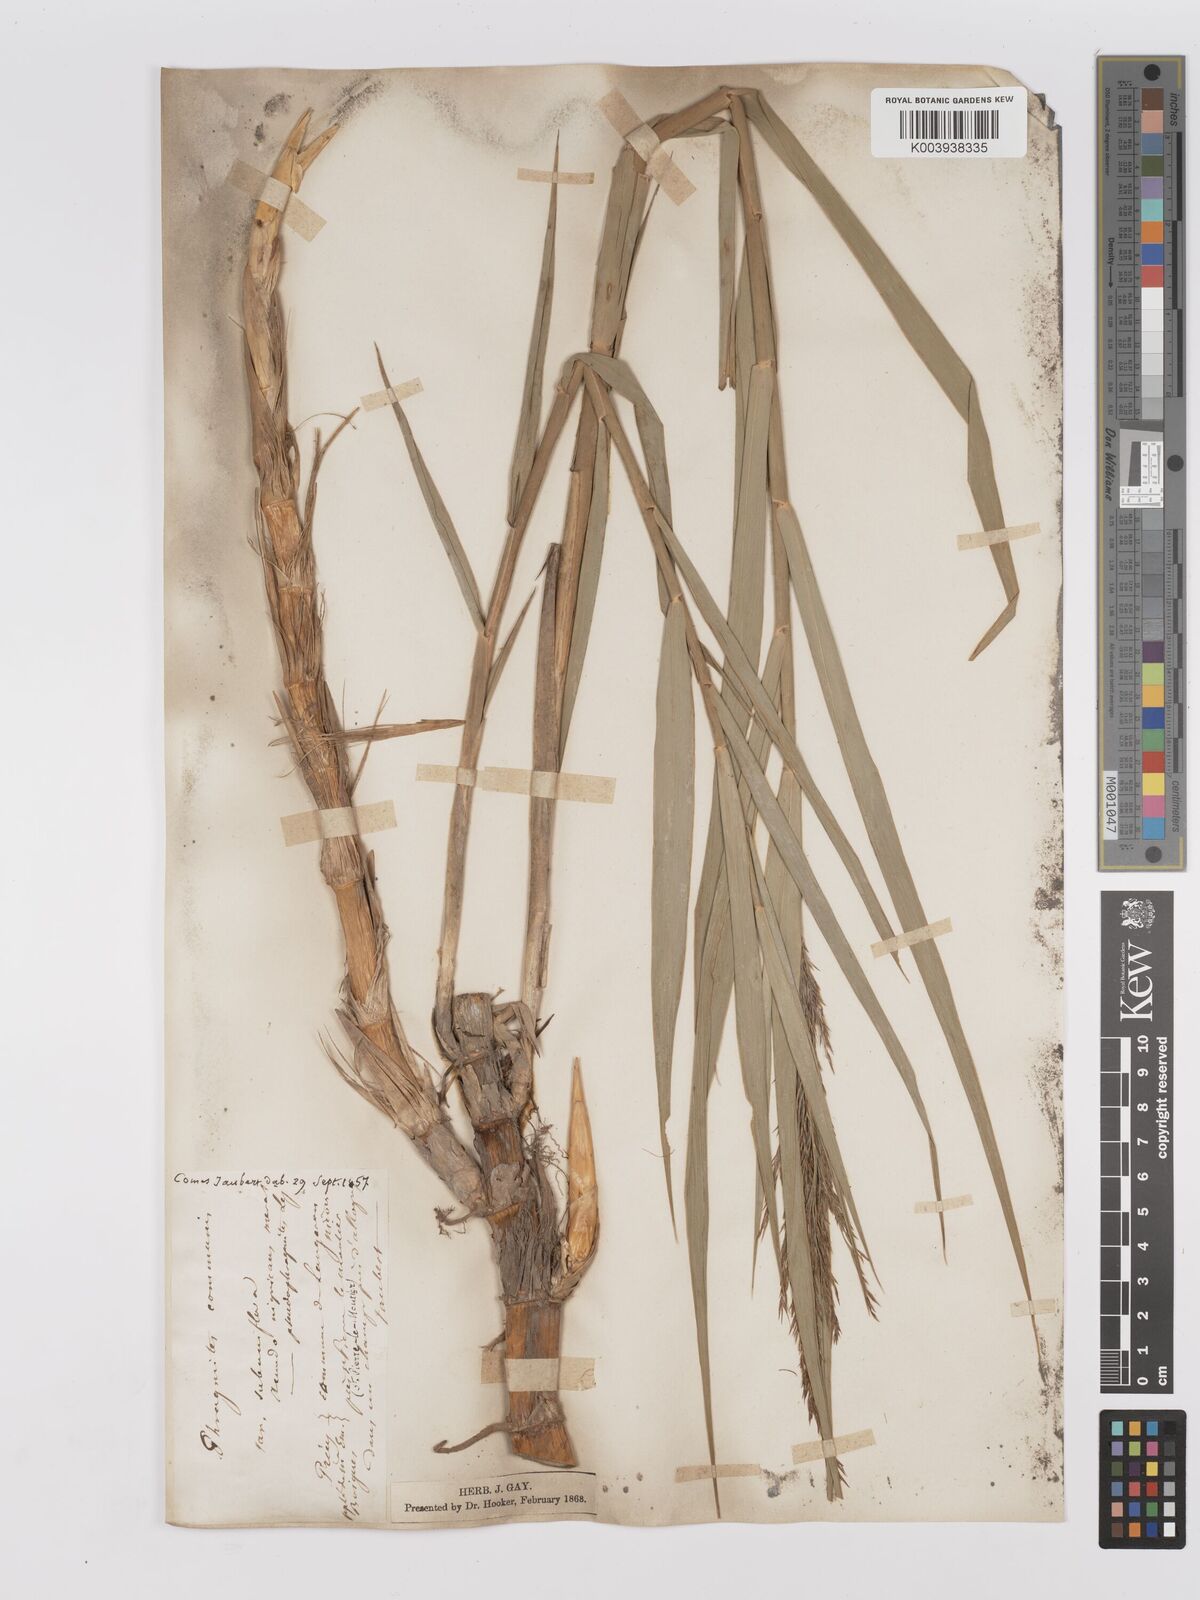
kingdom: Plantae
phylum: Tracheophyta
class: Liliopsida
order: Poales
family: Poaceae
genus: Phragmites
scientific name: Phragmites australis
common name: Common reed
